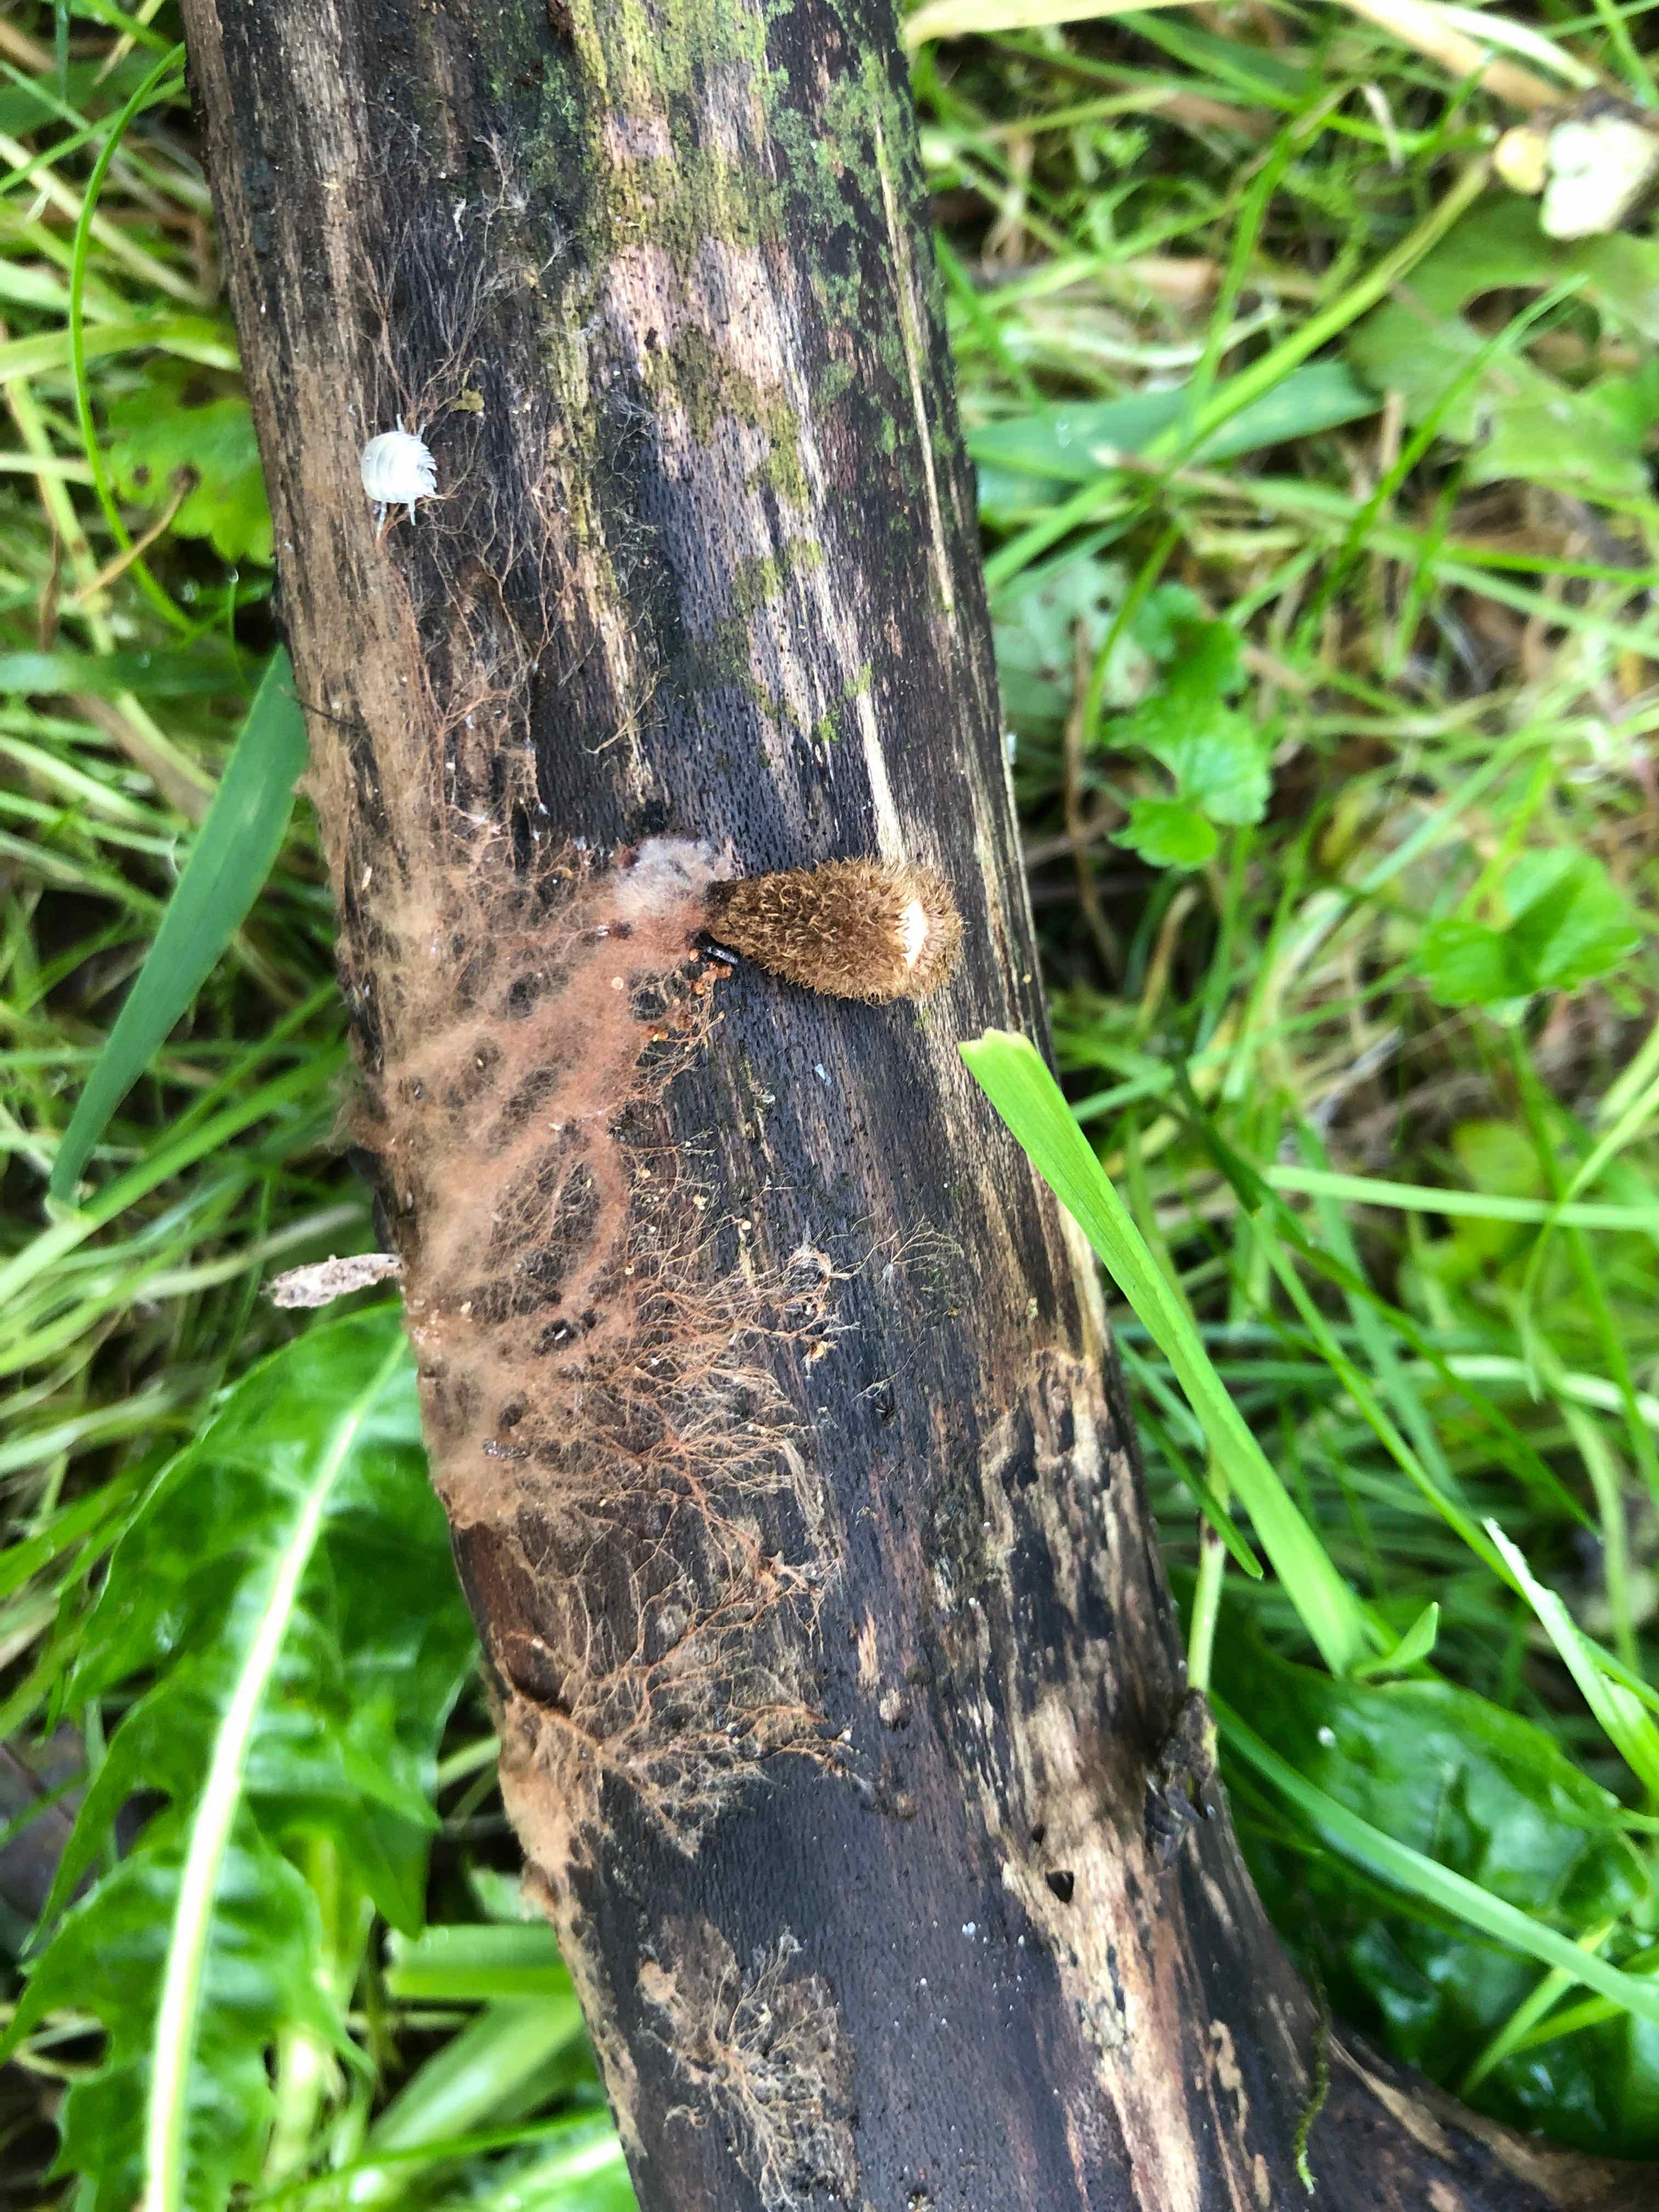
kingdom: Fungi
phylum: Basidiomycota
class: Agaricomycetes
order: Agaricales
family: Agaricaceae
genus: Cyathus
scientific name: Cyathus striatus
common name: stribet redesvamp
